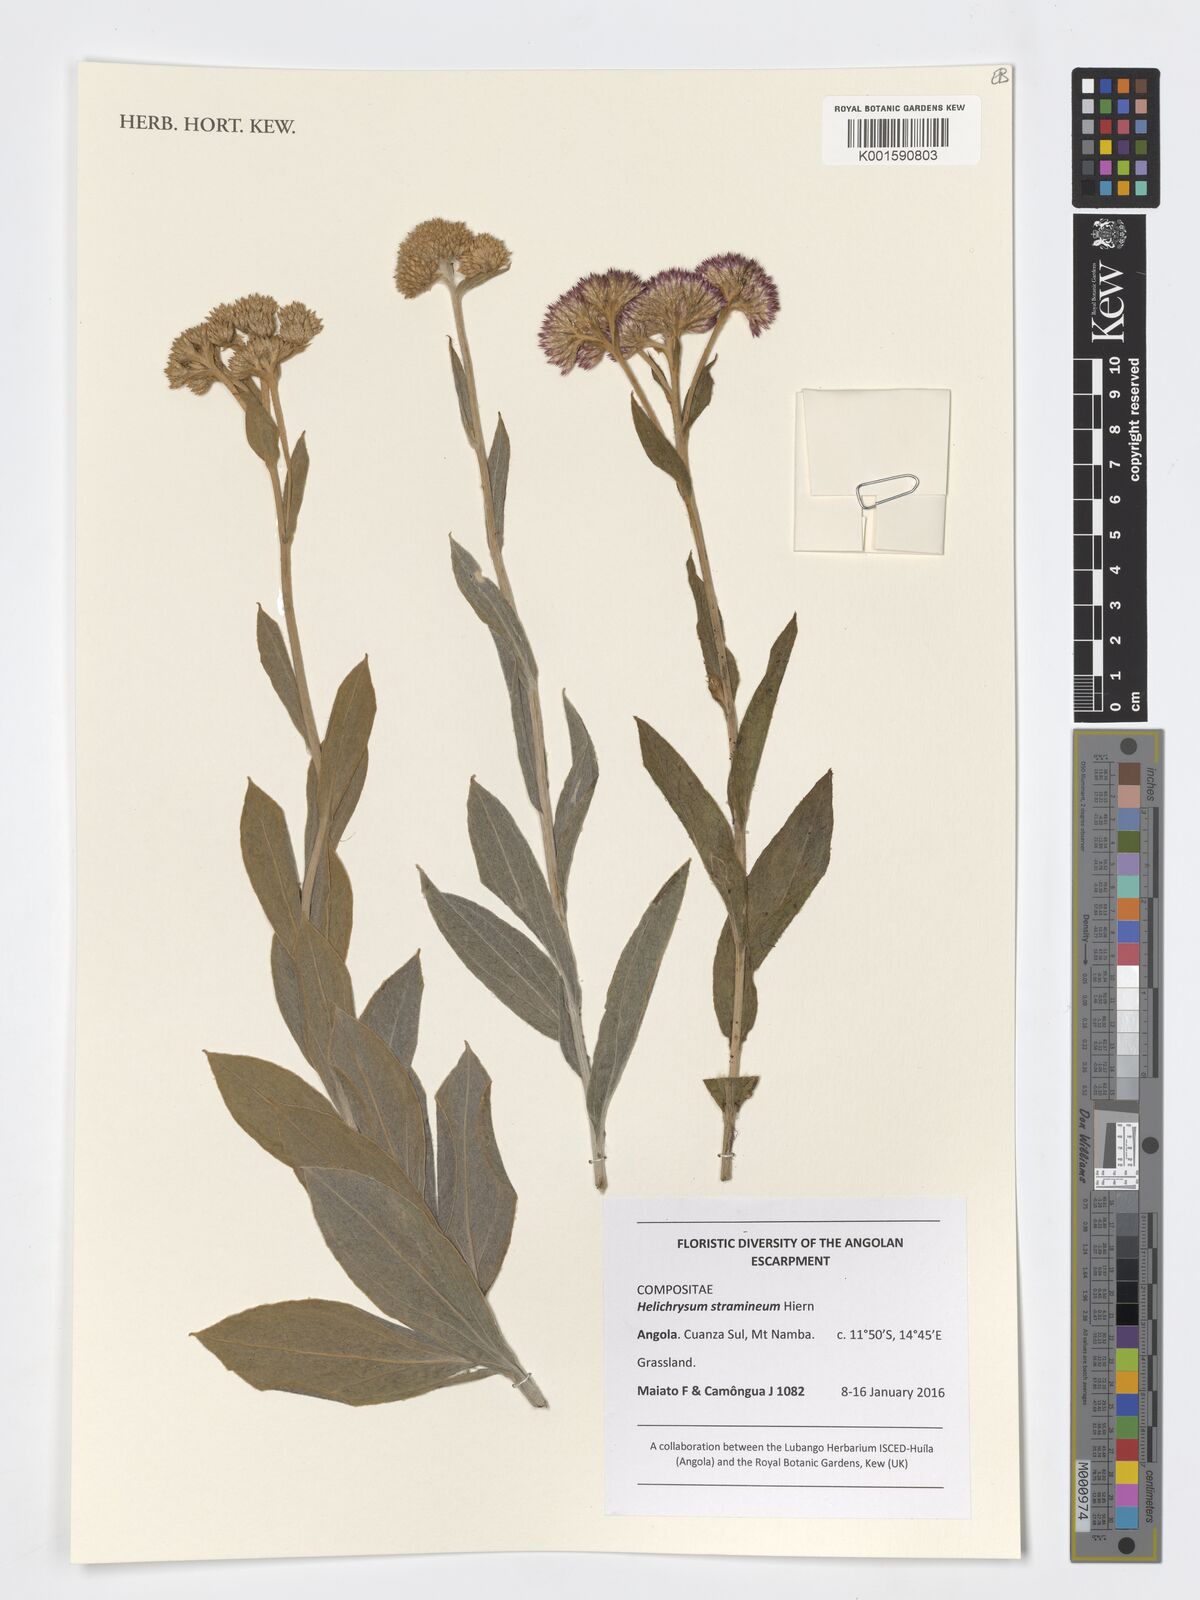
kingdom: Plantae
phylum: Tracheophyta
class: Magnoliopsida
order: Asterales
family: Asteraceae
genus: Helichrysum
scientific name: Helichrysum stramineum
